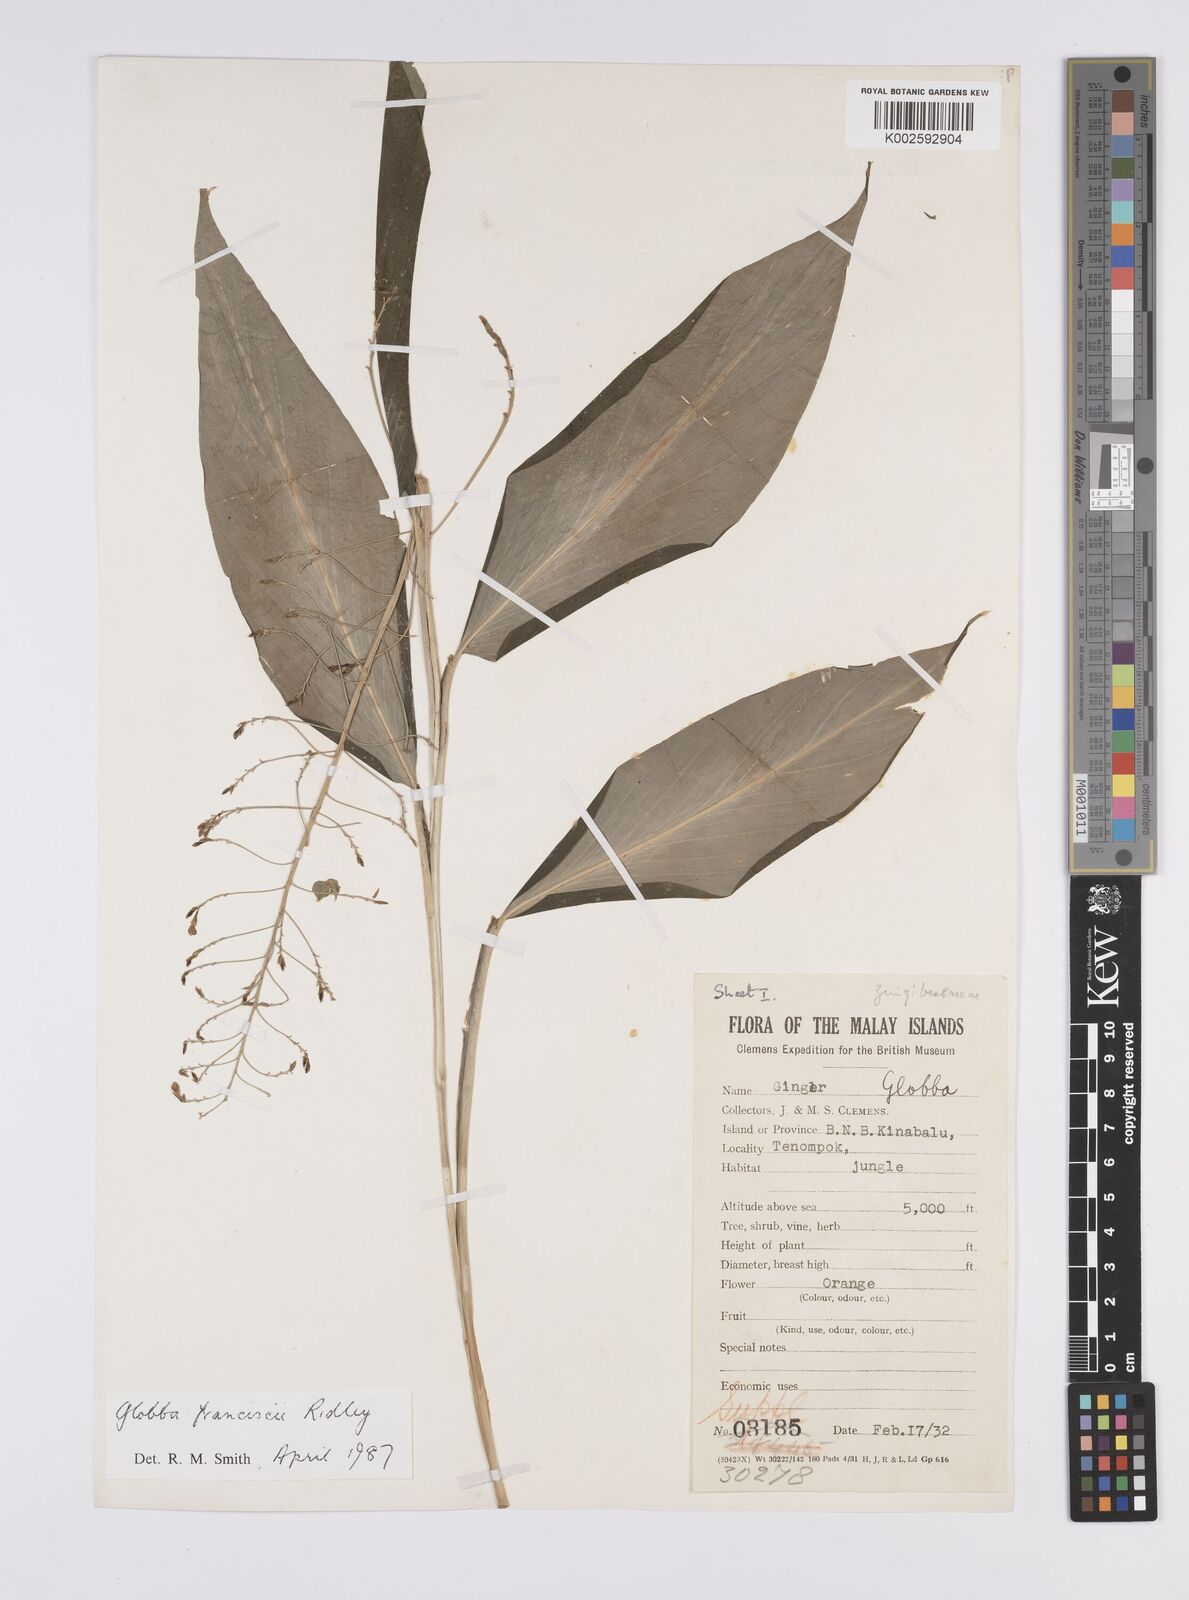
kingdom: Plantae
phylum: Tracheophyta
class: Liliopsida
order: Zingiberales
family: Zingiberaceae
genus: Globba
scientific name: Globba francisci
